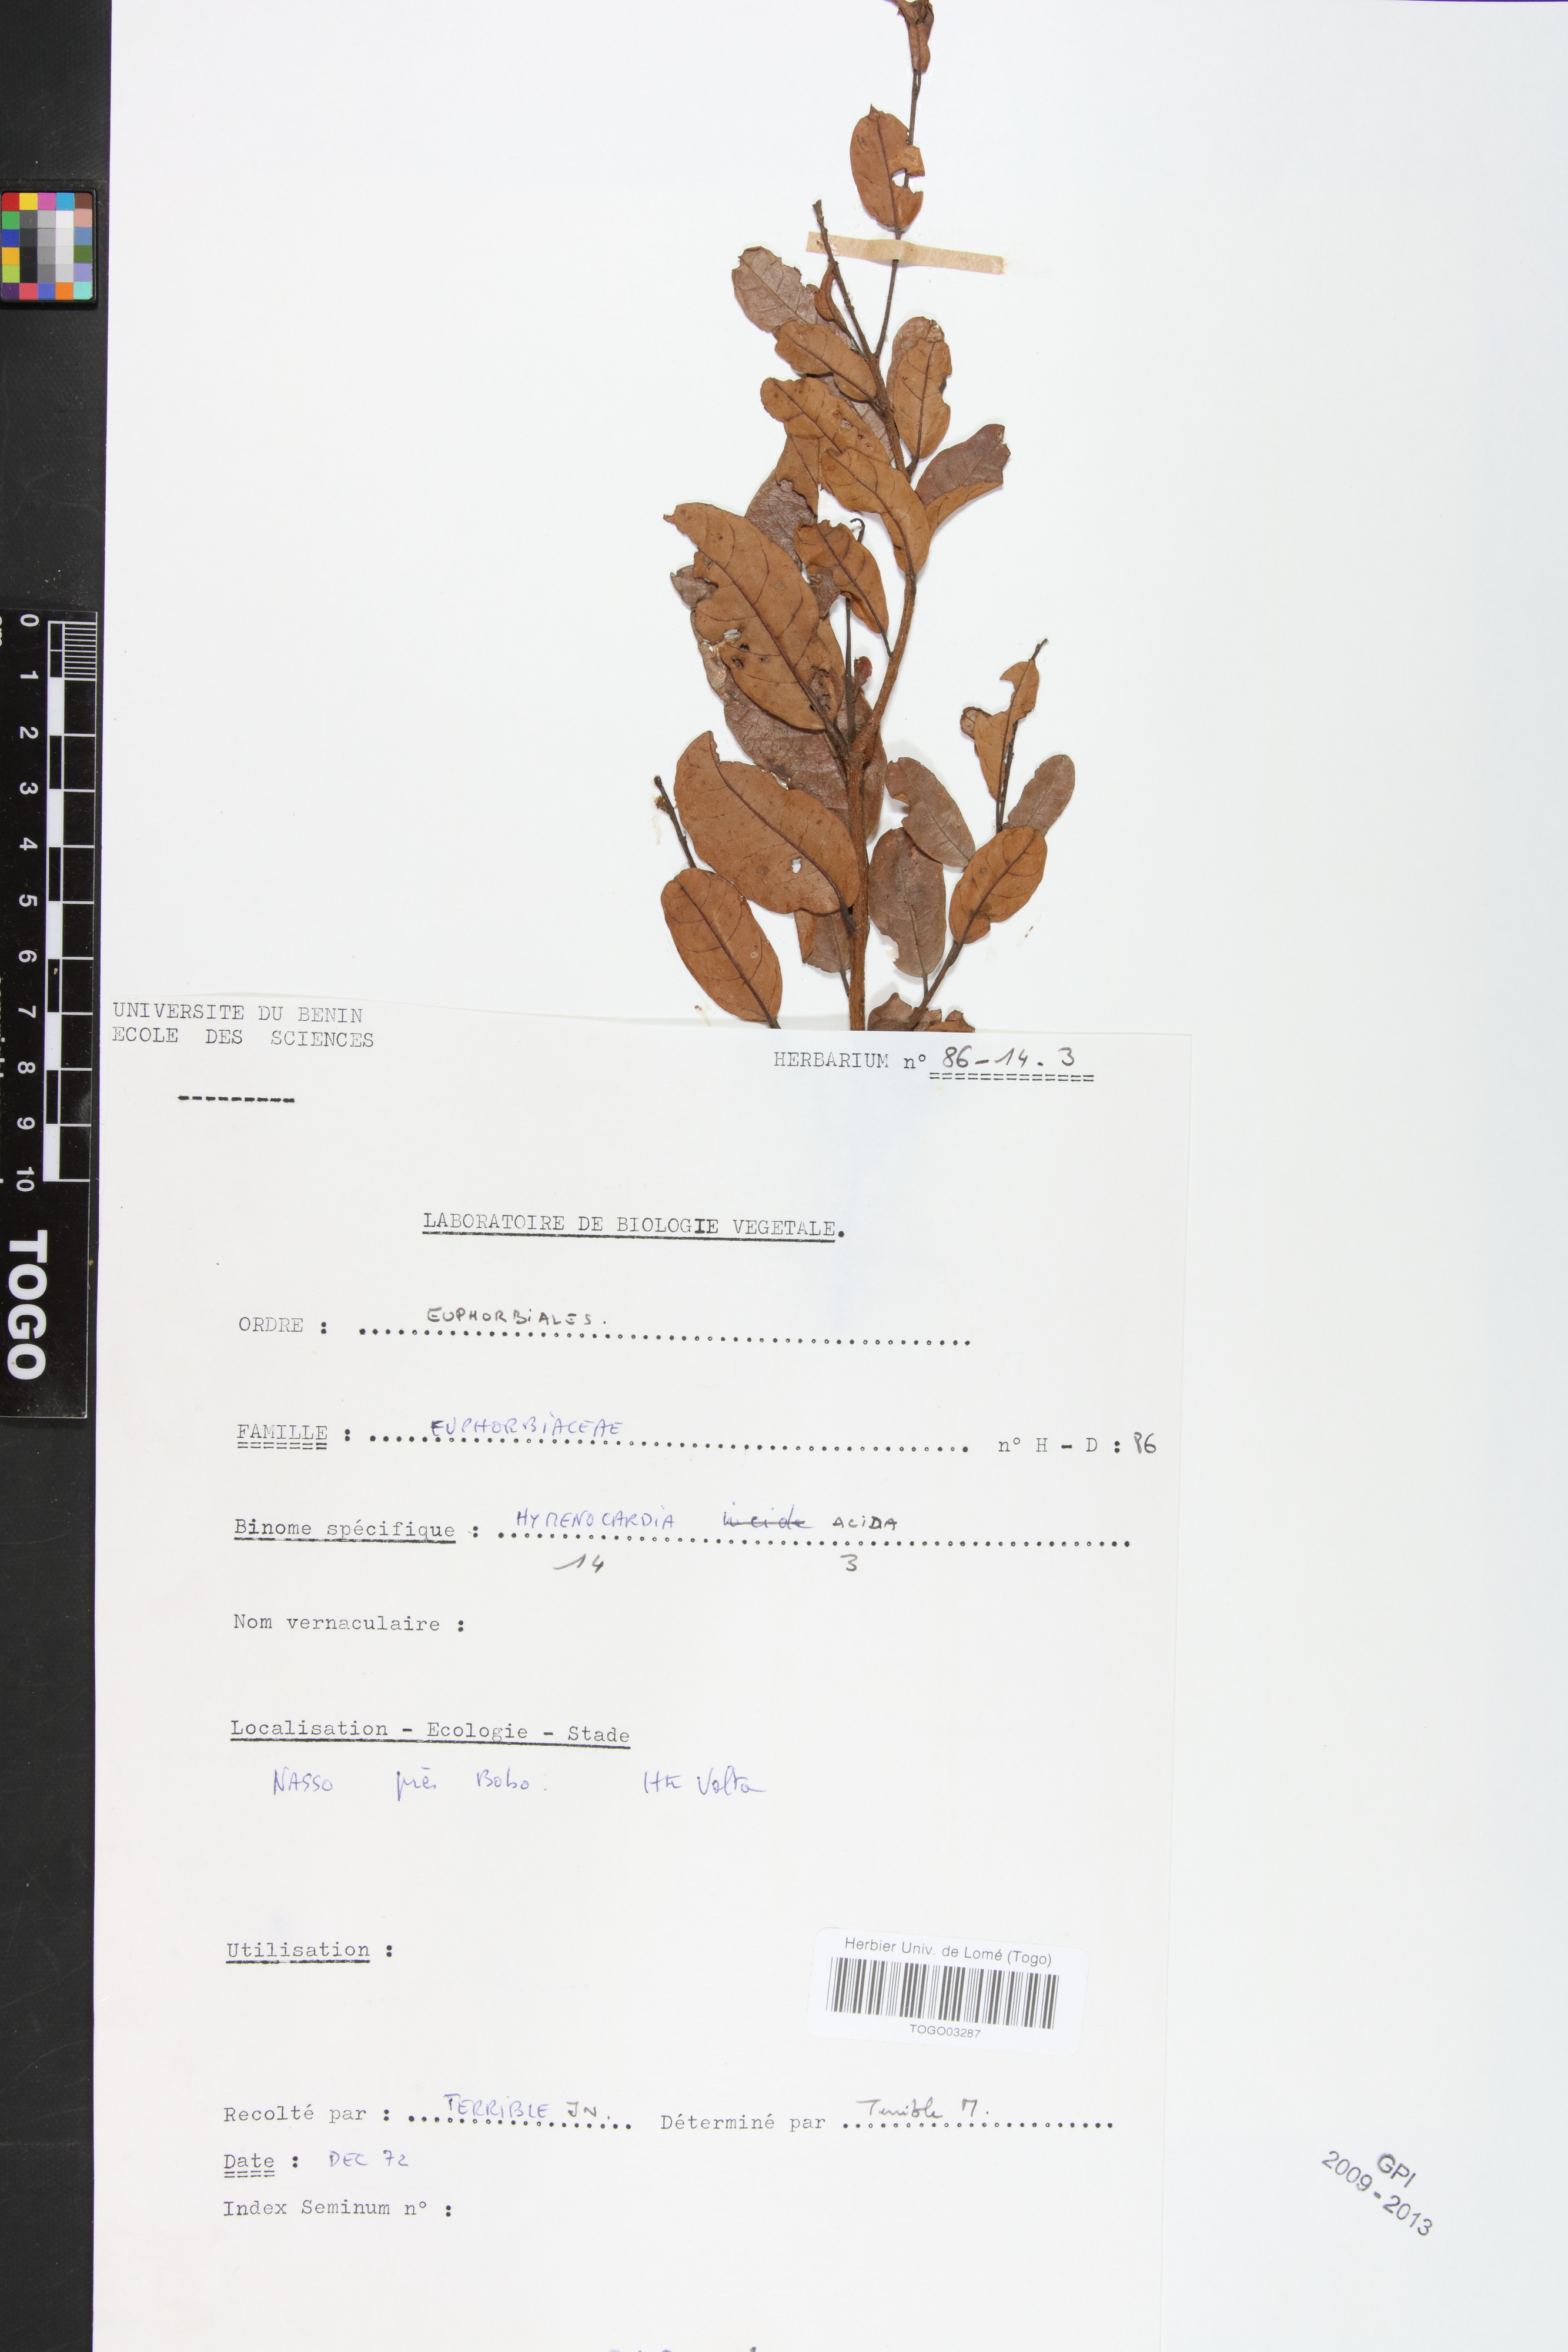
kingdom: Plantae
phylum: Tracheophyta
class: Magnoliopsida
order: Malpighiales
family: Phyllanthaceae
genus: Hymenocardia
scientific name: Hymenocardia acida
